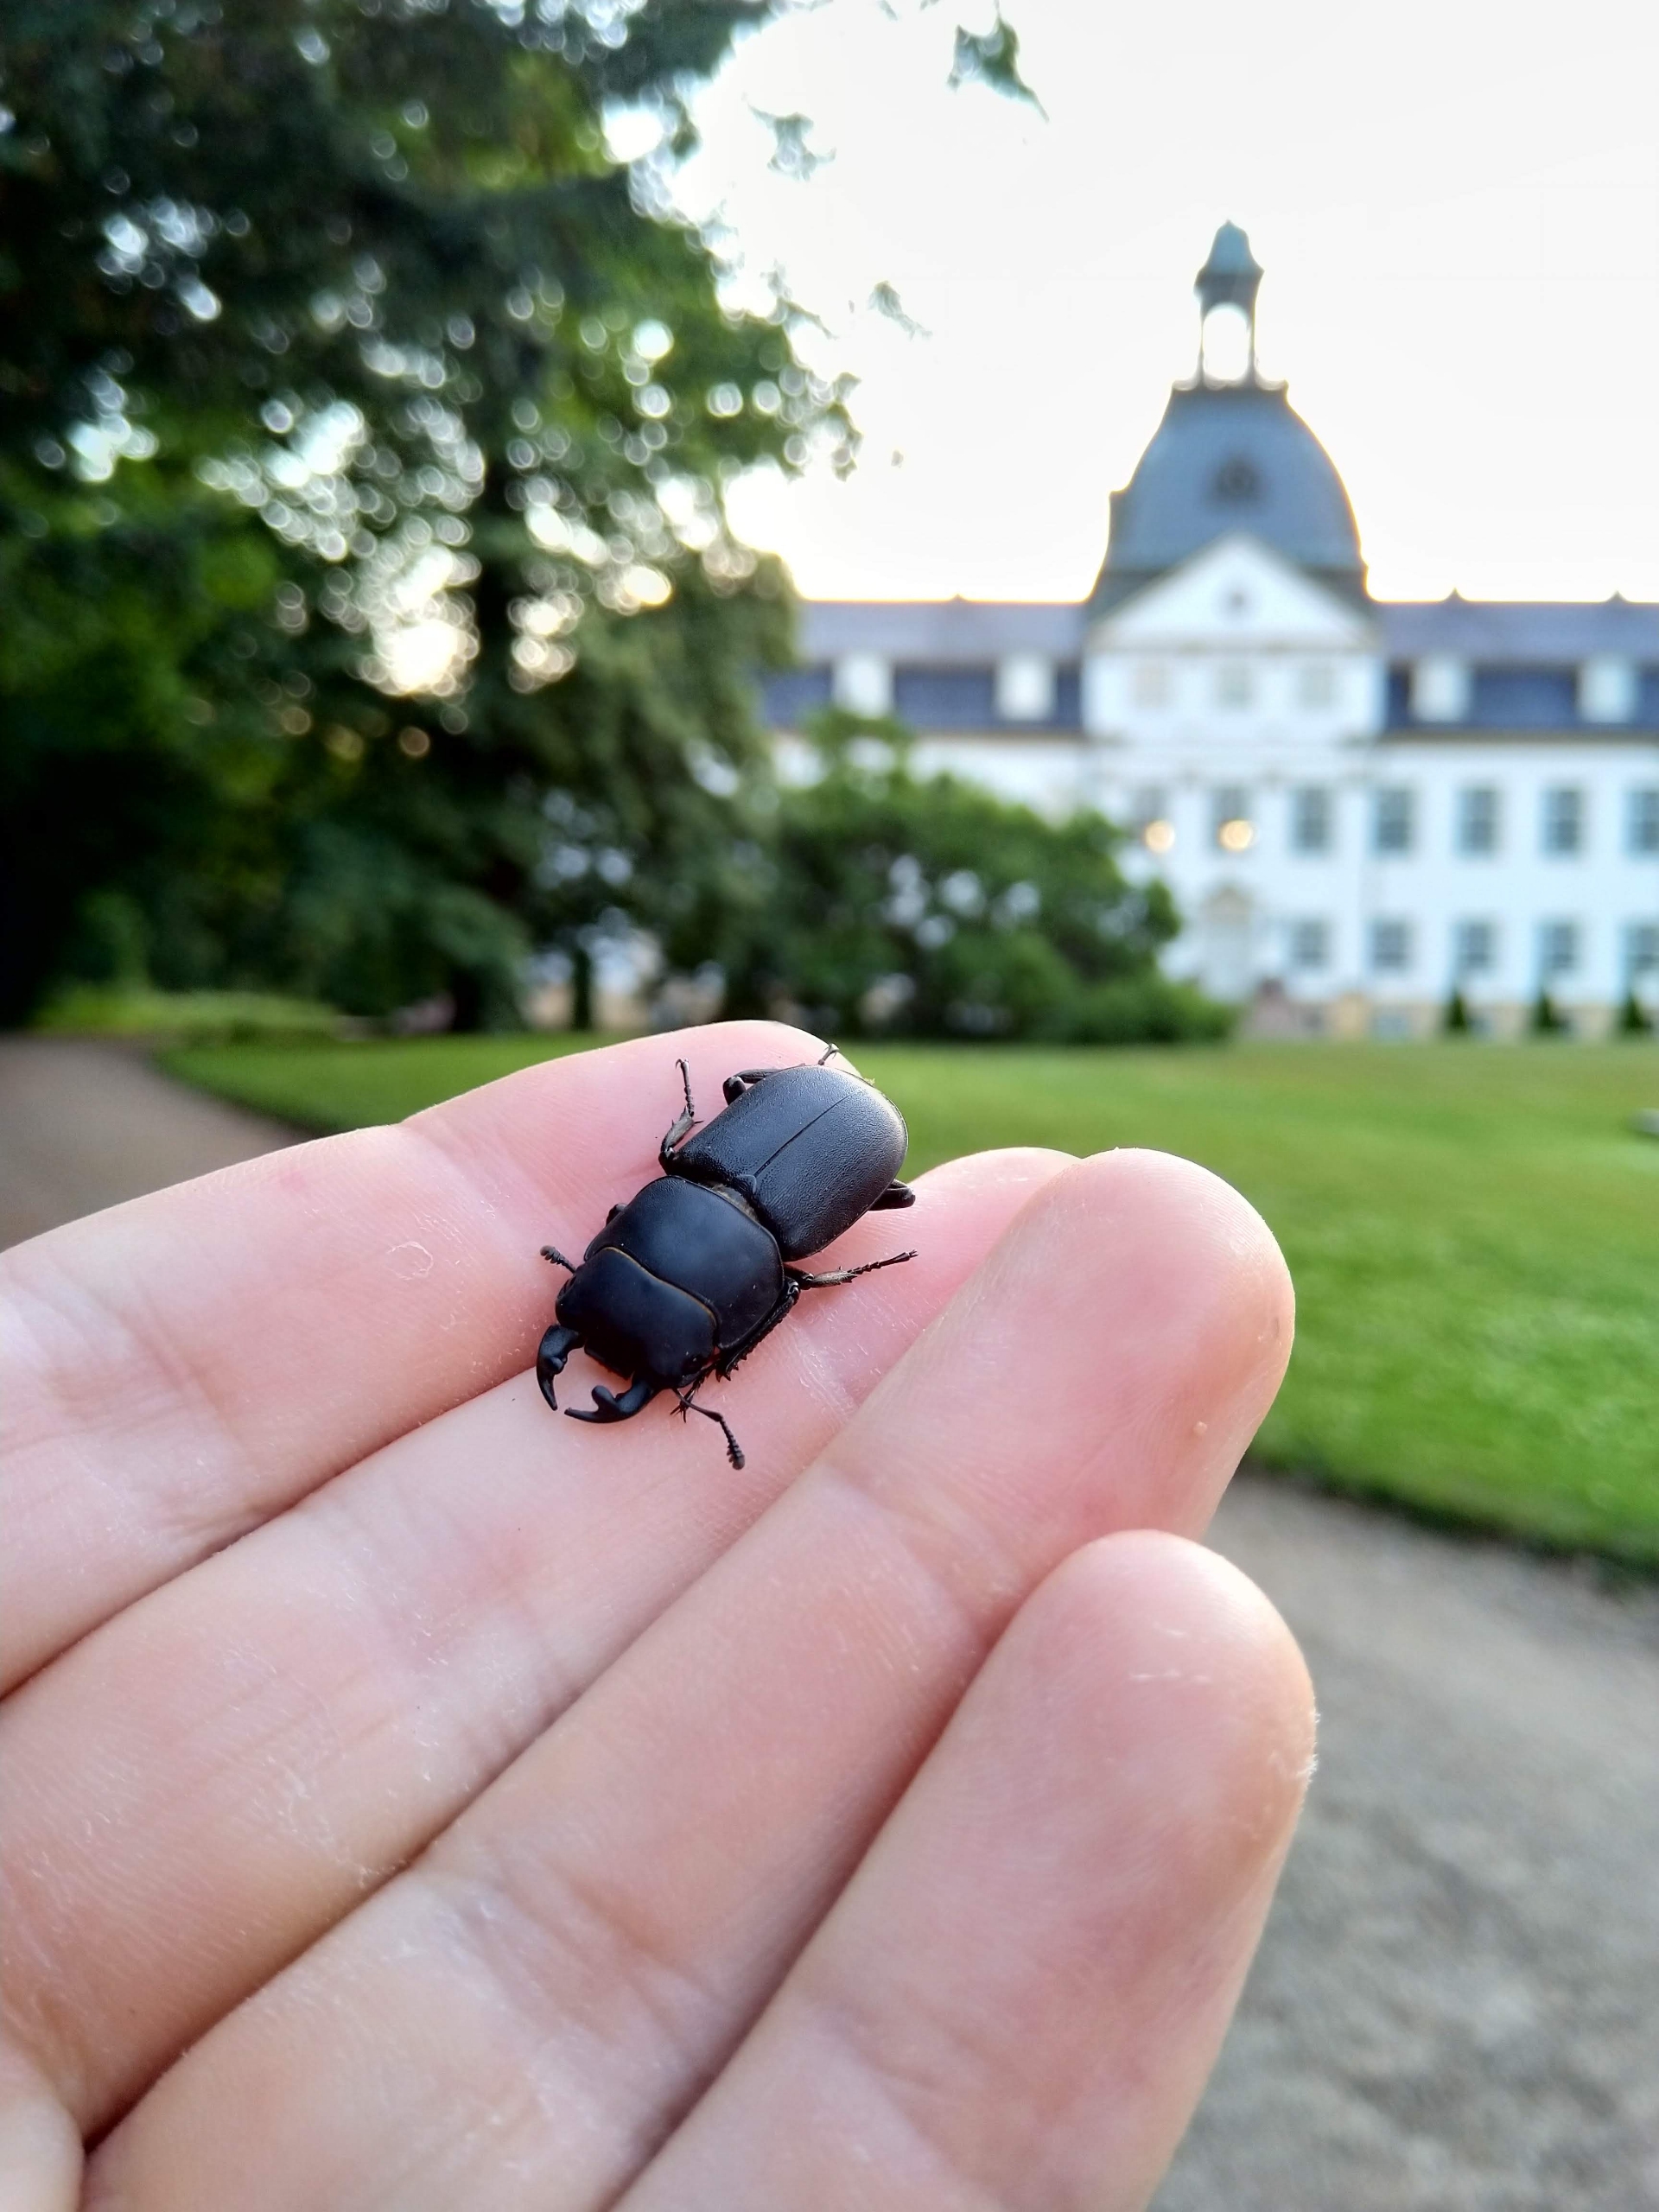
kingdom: Animalia
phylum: Arthropoda
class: Insecta
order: Coleoptera
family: Lucanidae
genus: Dorcus
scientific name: Dorcus parallelipipedus
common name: Bøghjort
